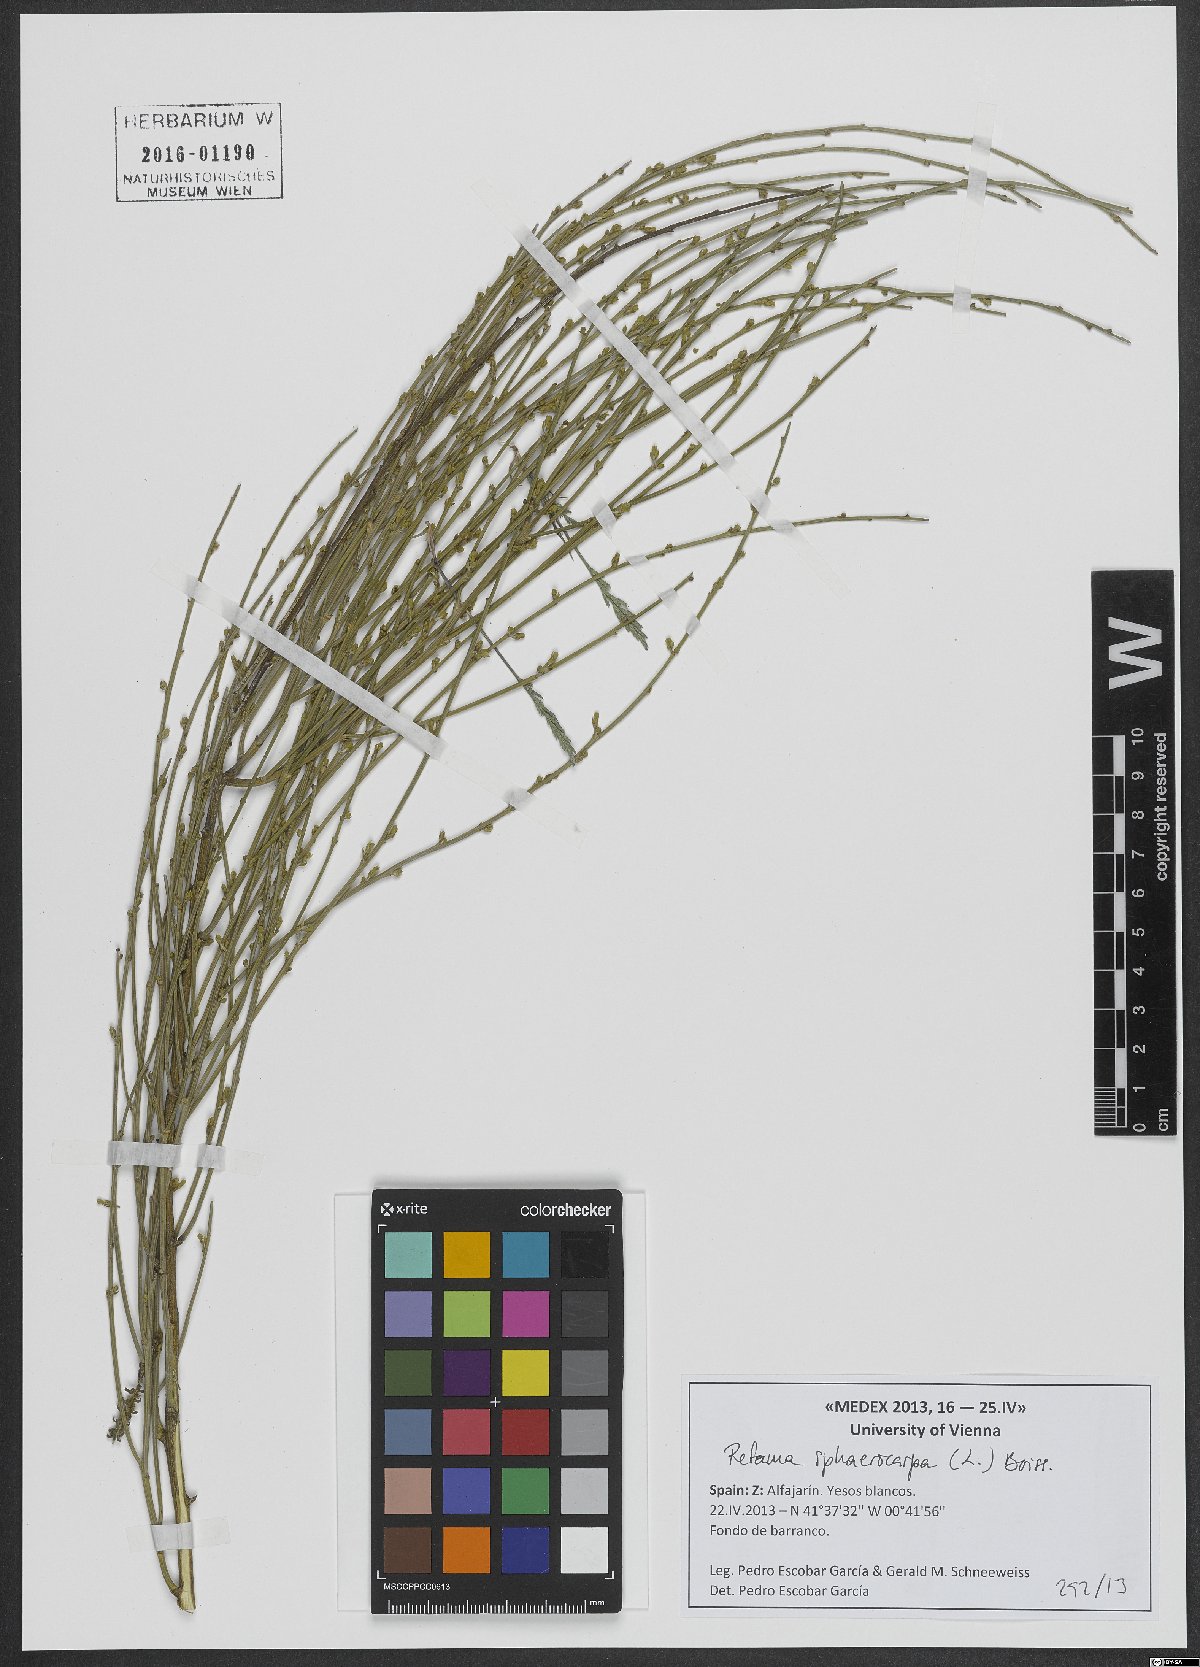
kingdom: Plantae
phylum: Tracheophyta
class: Magnoliopsida
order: Fabales
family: Fabaceae
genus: Retama
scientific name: Retama sphaerocarpa
